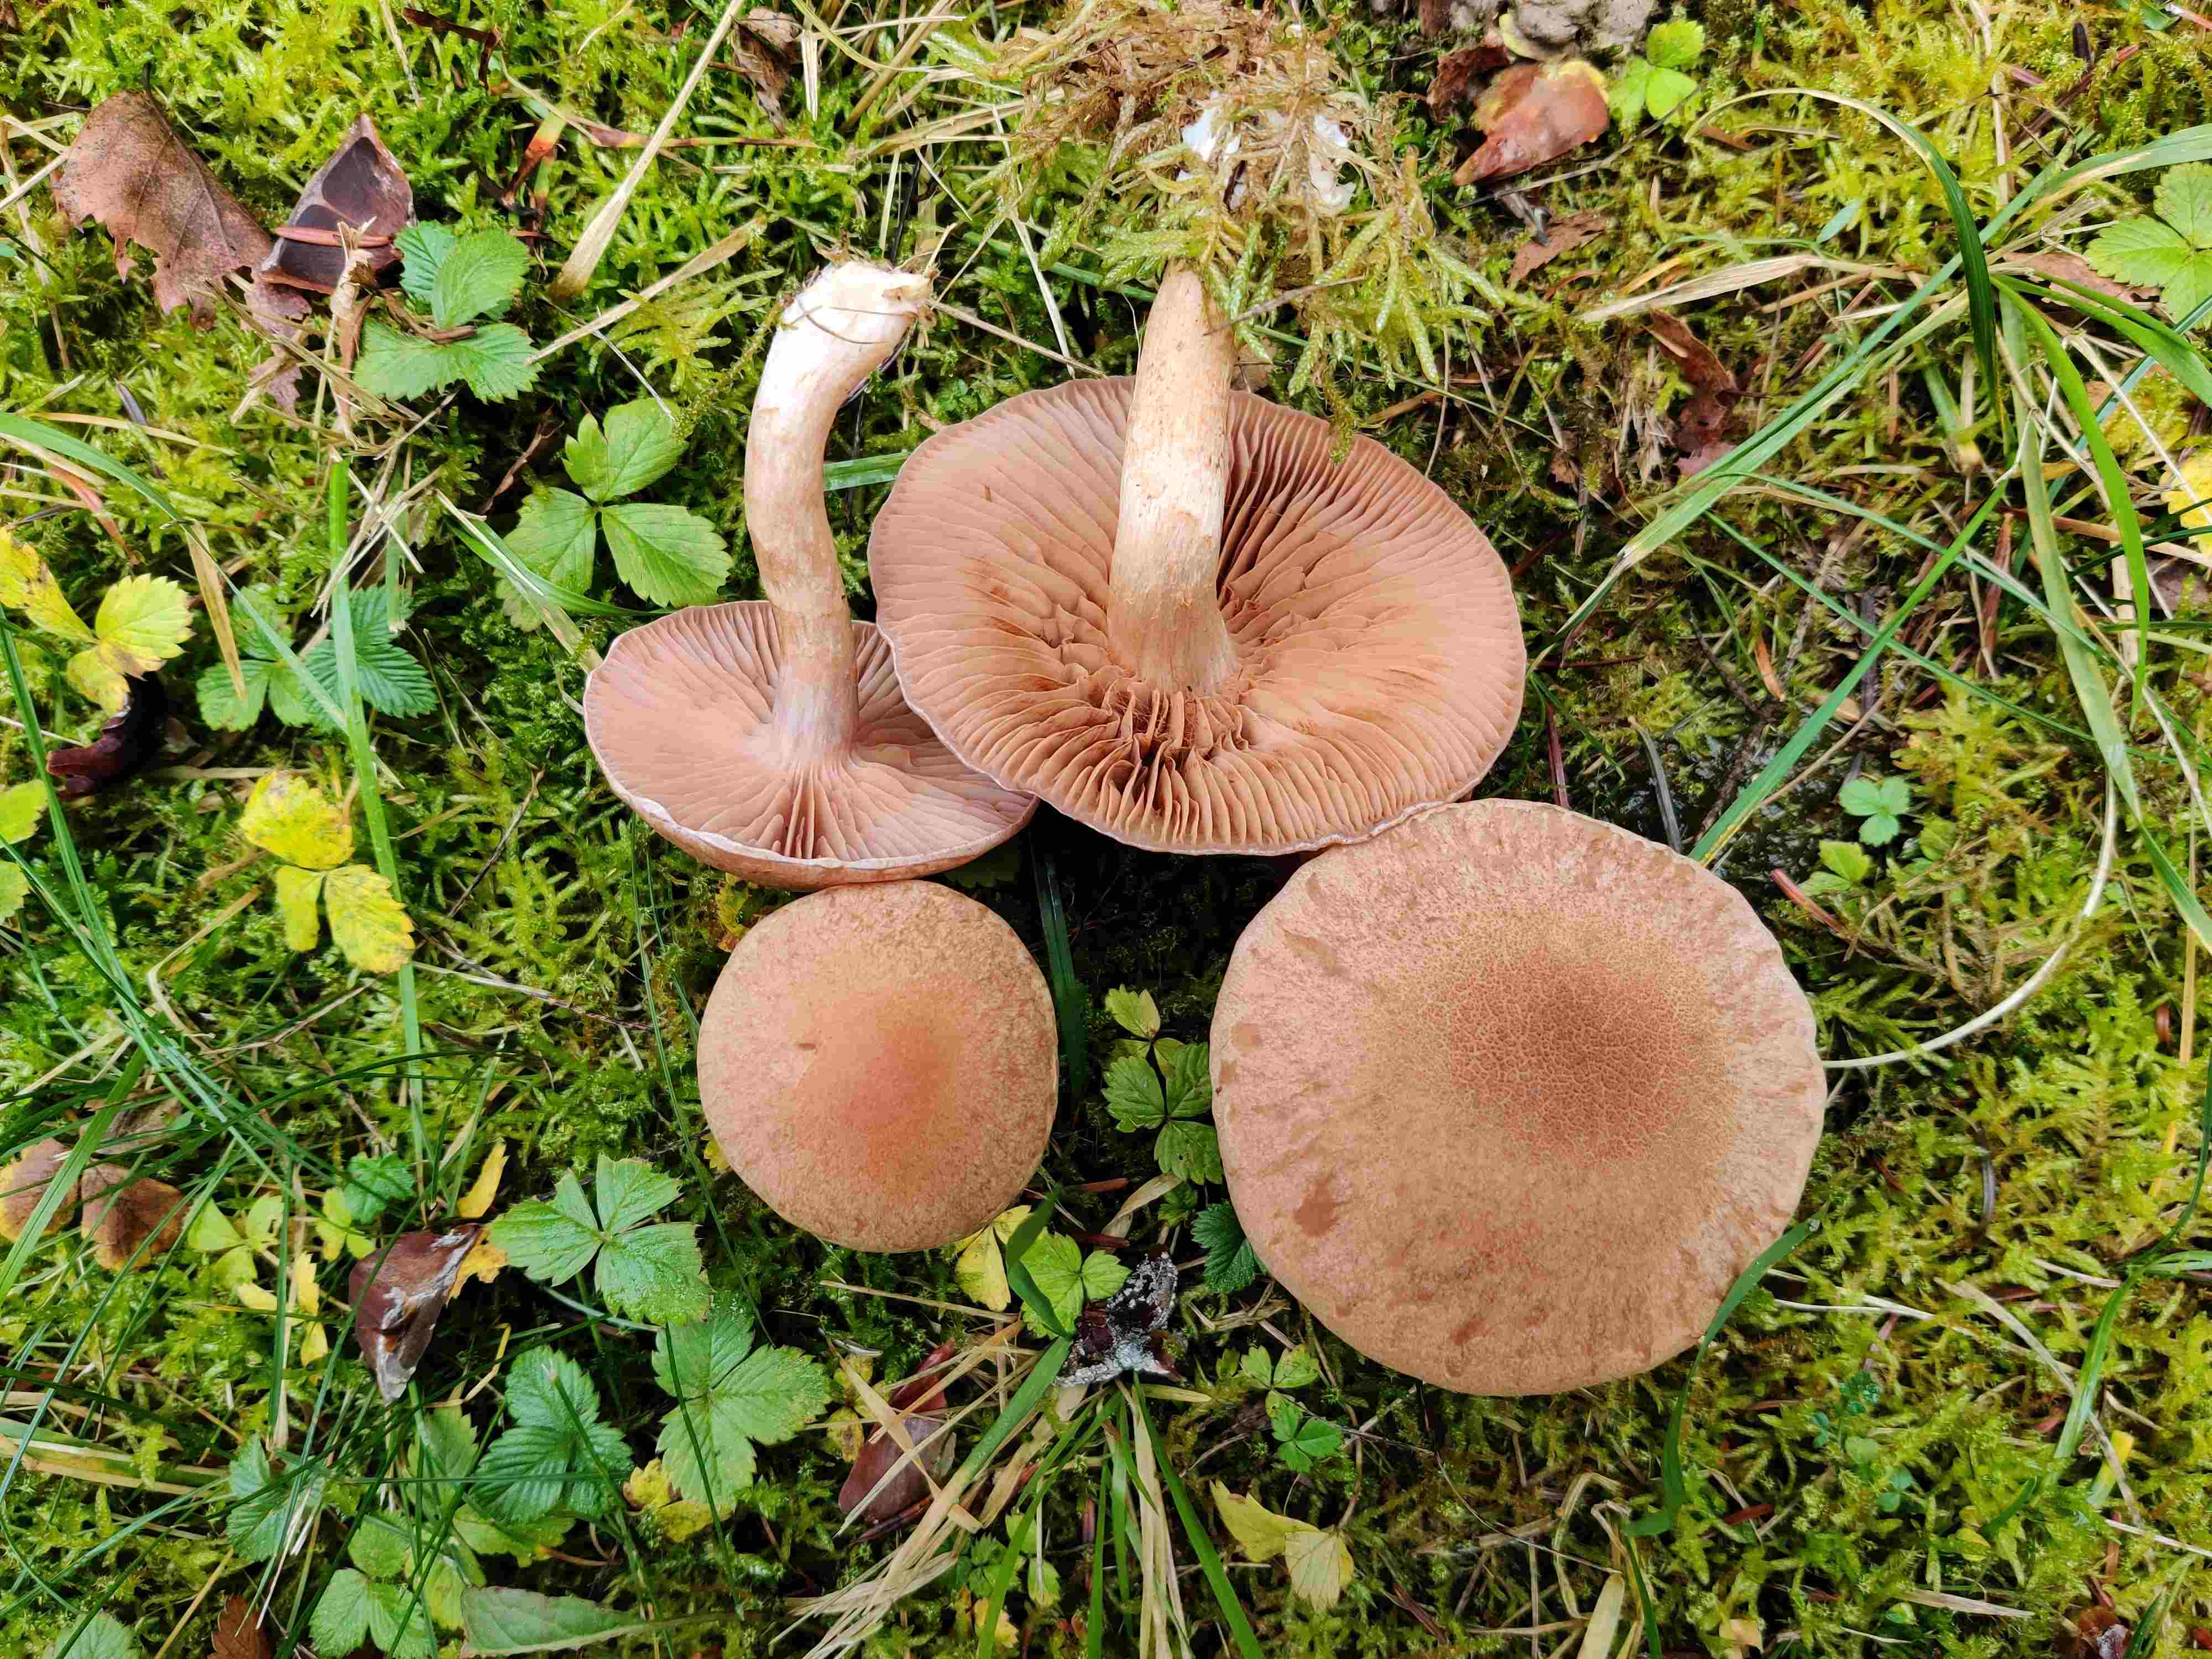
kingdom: Fungi
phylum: Basidiomycota
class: Agaricomycetes
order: Agaricales
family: Cortinariaceae
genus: Cortinarius
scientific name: Cortinarius
